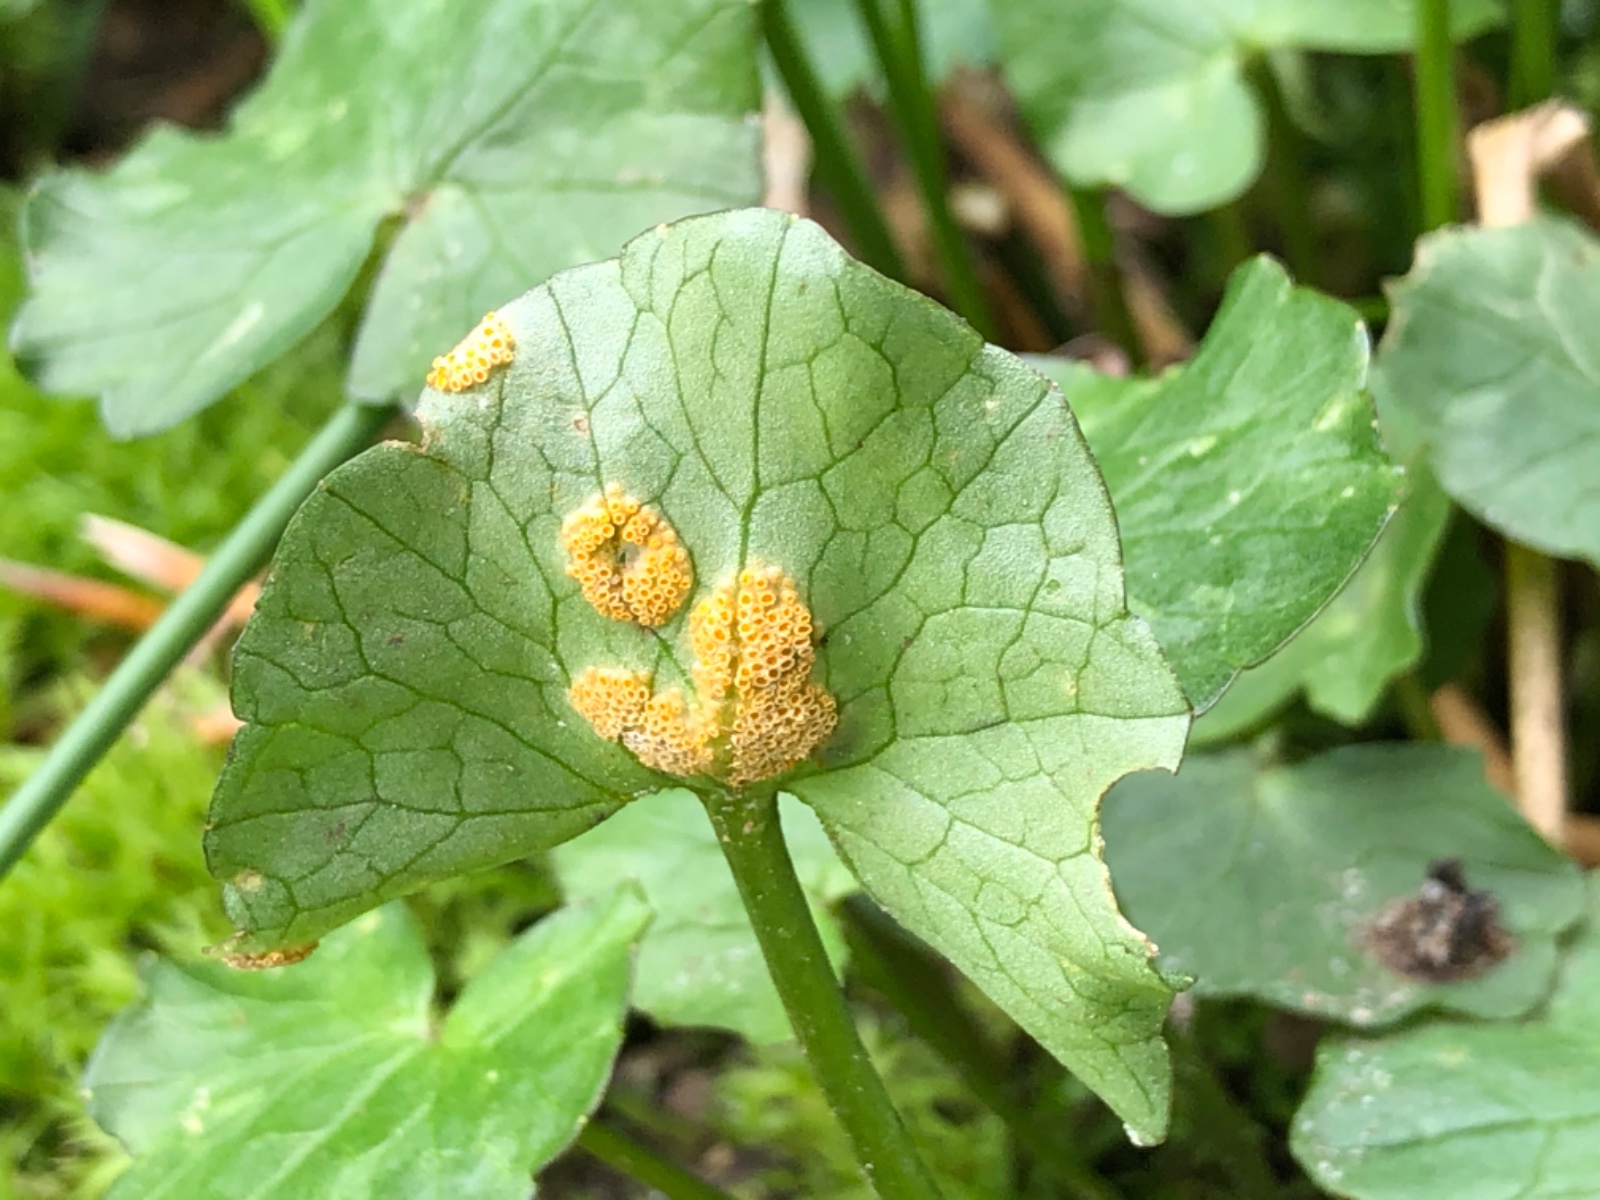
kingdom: Fungi
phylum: Basidiomycota
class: Pucciniomycetes
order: Pucciniales
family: Pucciniaceae
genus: Uromyces
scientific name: Uromyces dactylidis
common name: ranunkel-encellerust
